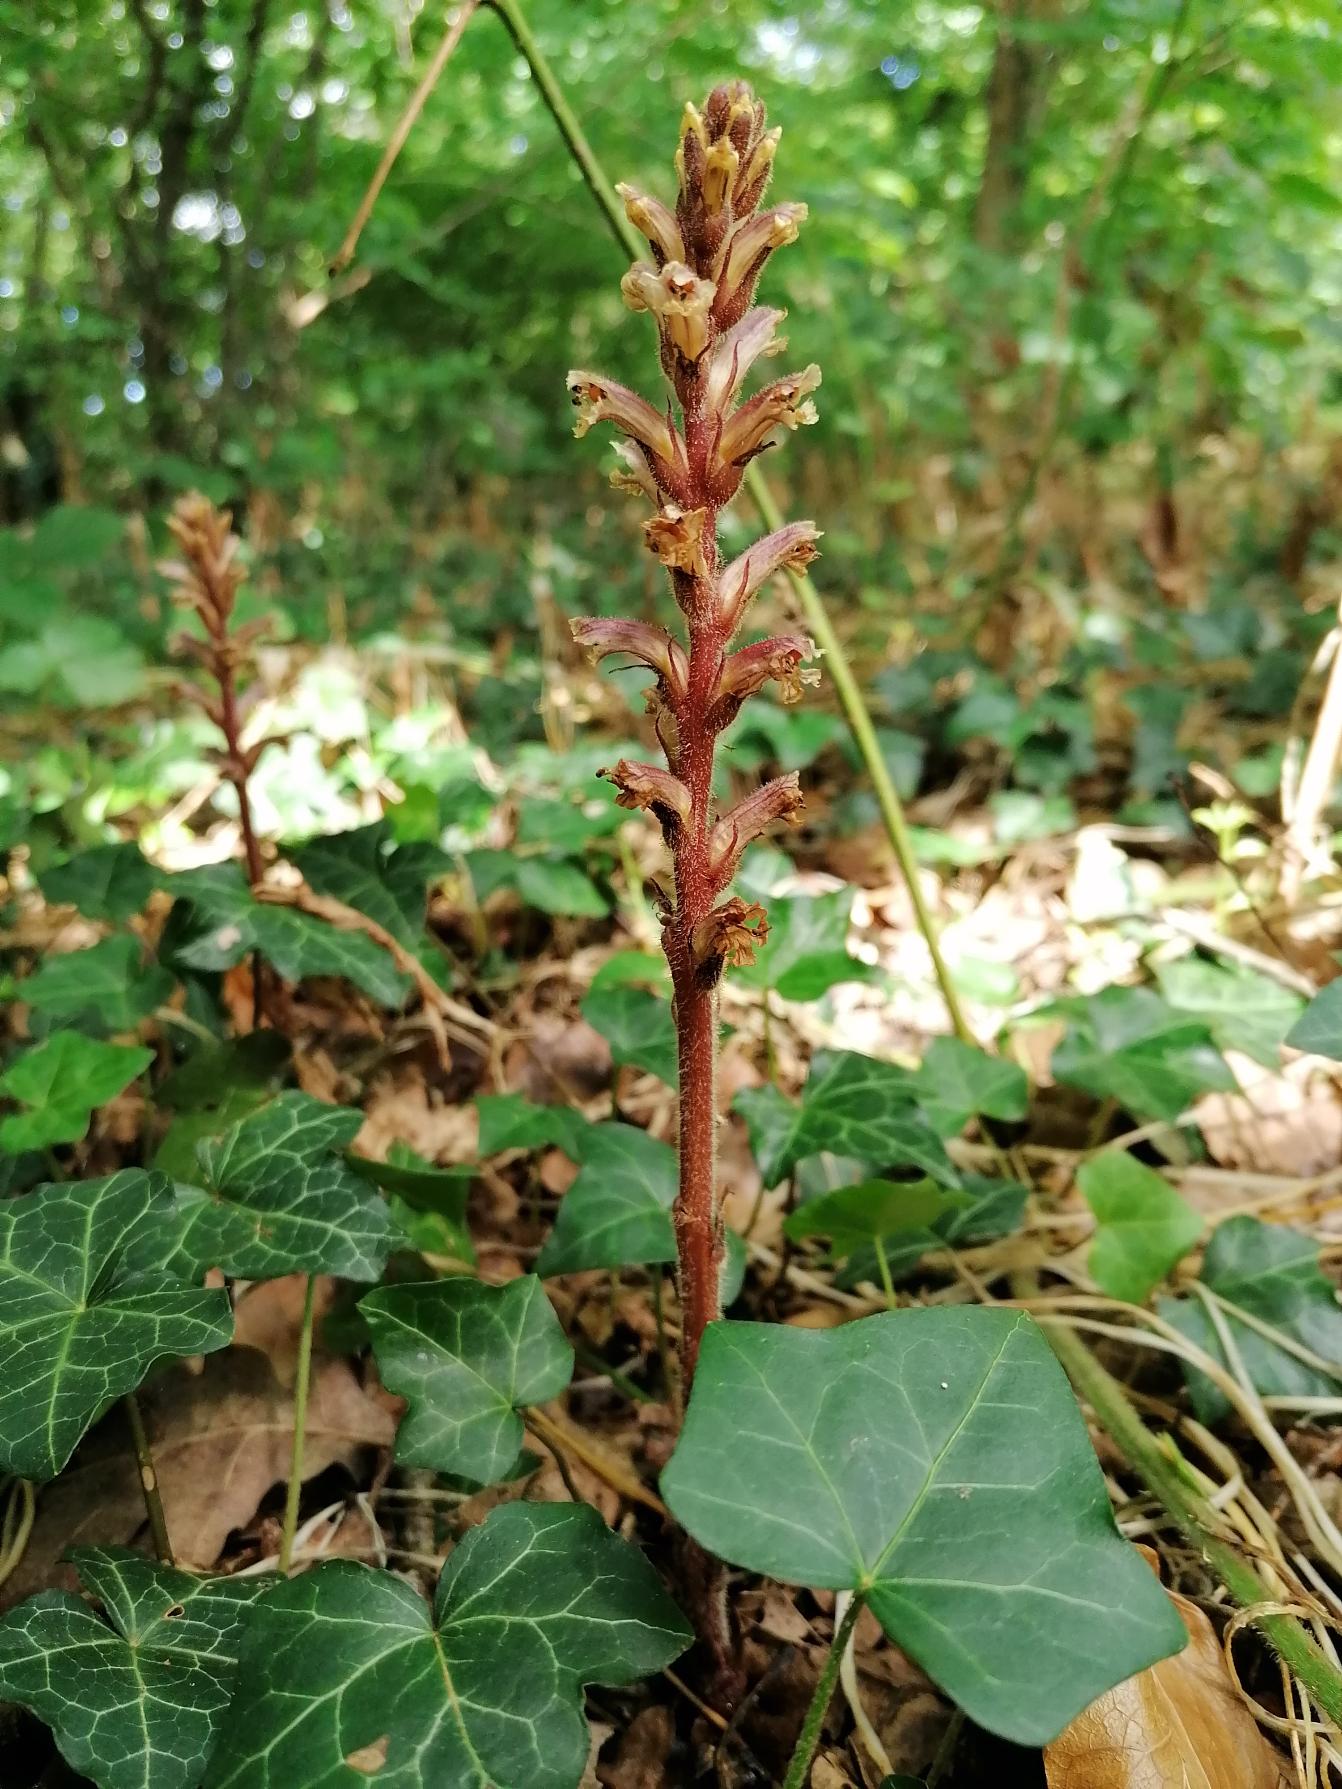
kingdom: Plantae
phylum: Tracheophyta
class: Magnoliopsida
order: Lamiales
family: Orobanchaceae
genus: Orobanche
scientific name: Orobanche hederae
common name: Vedbend-gyvelkvæler
